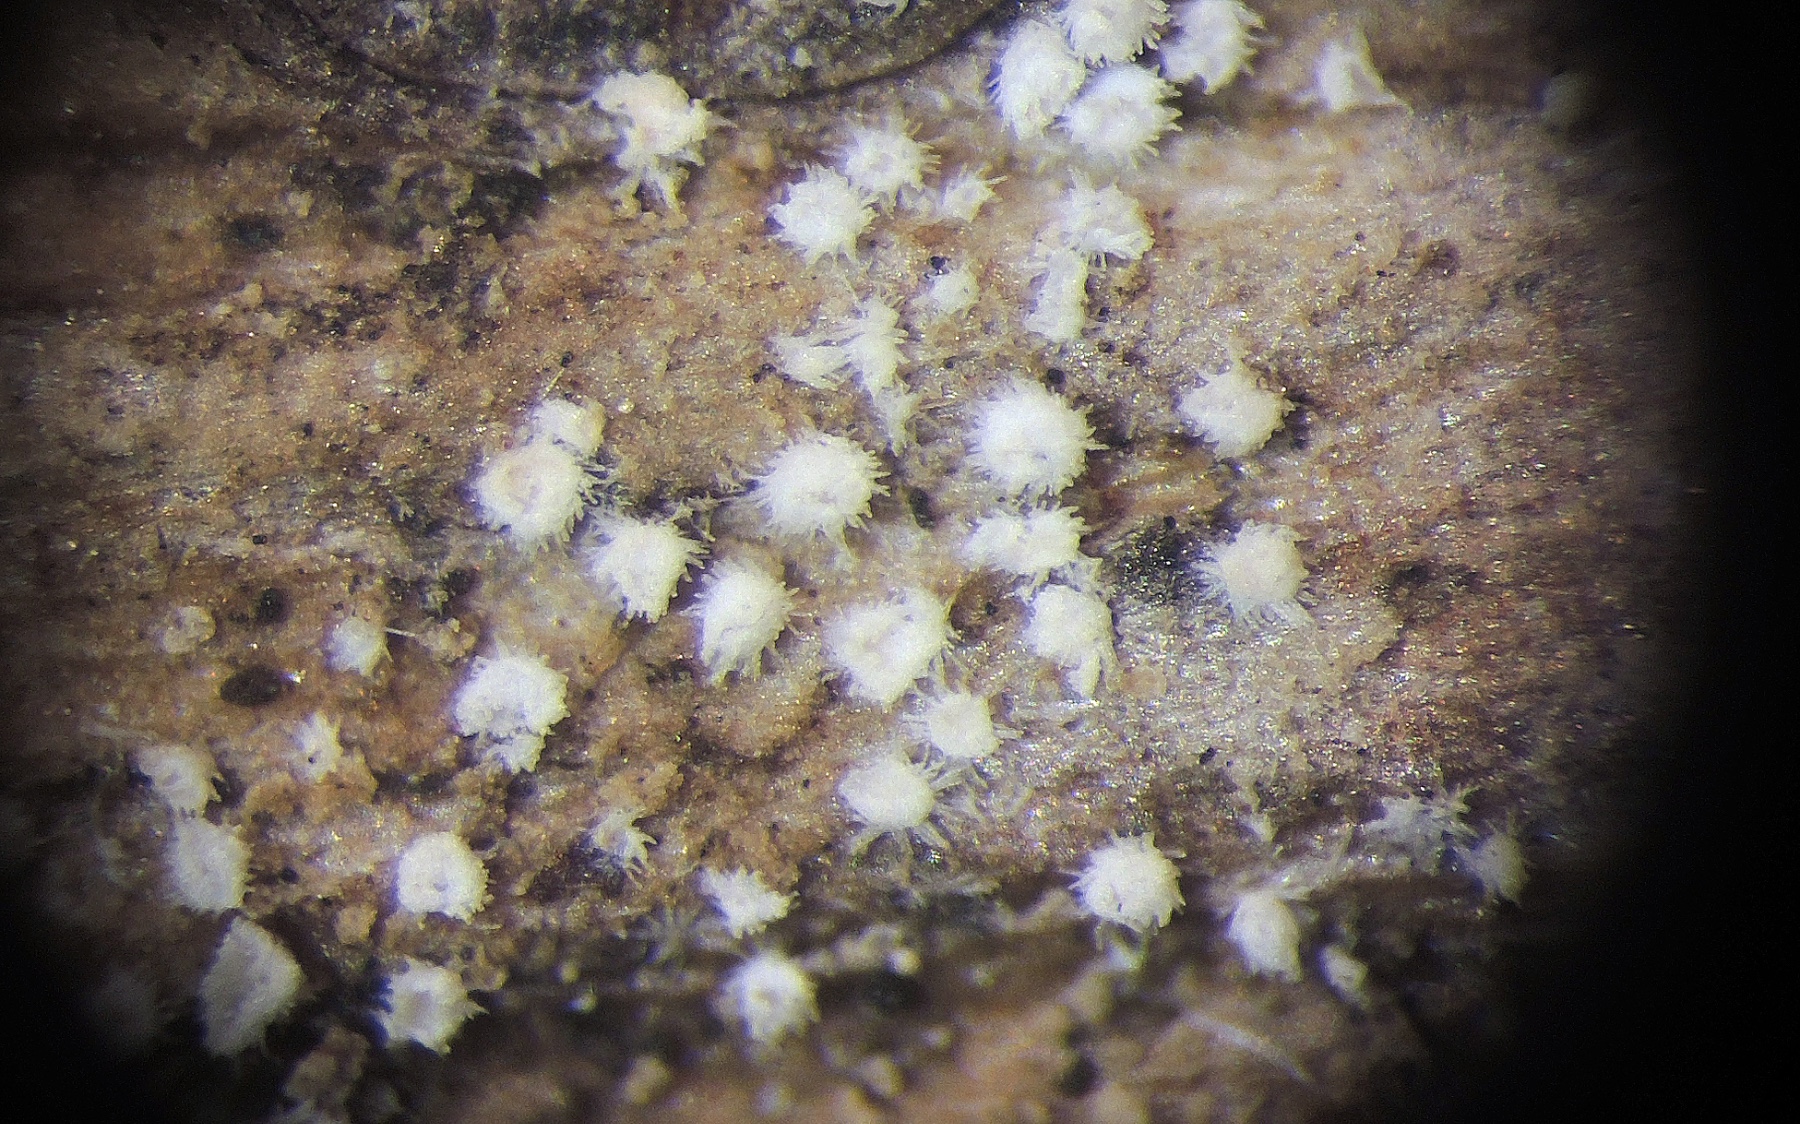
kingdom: Fungi
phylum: Basidiomycota
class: Agaricomycetes
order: Agaricales
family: Niaceae
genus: Flagelloscypha
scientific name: Flagelloscypha
